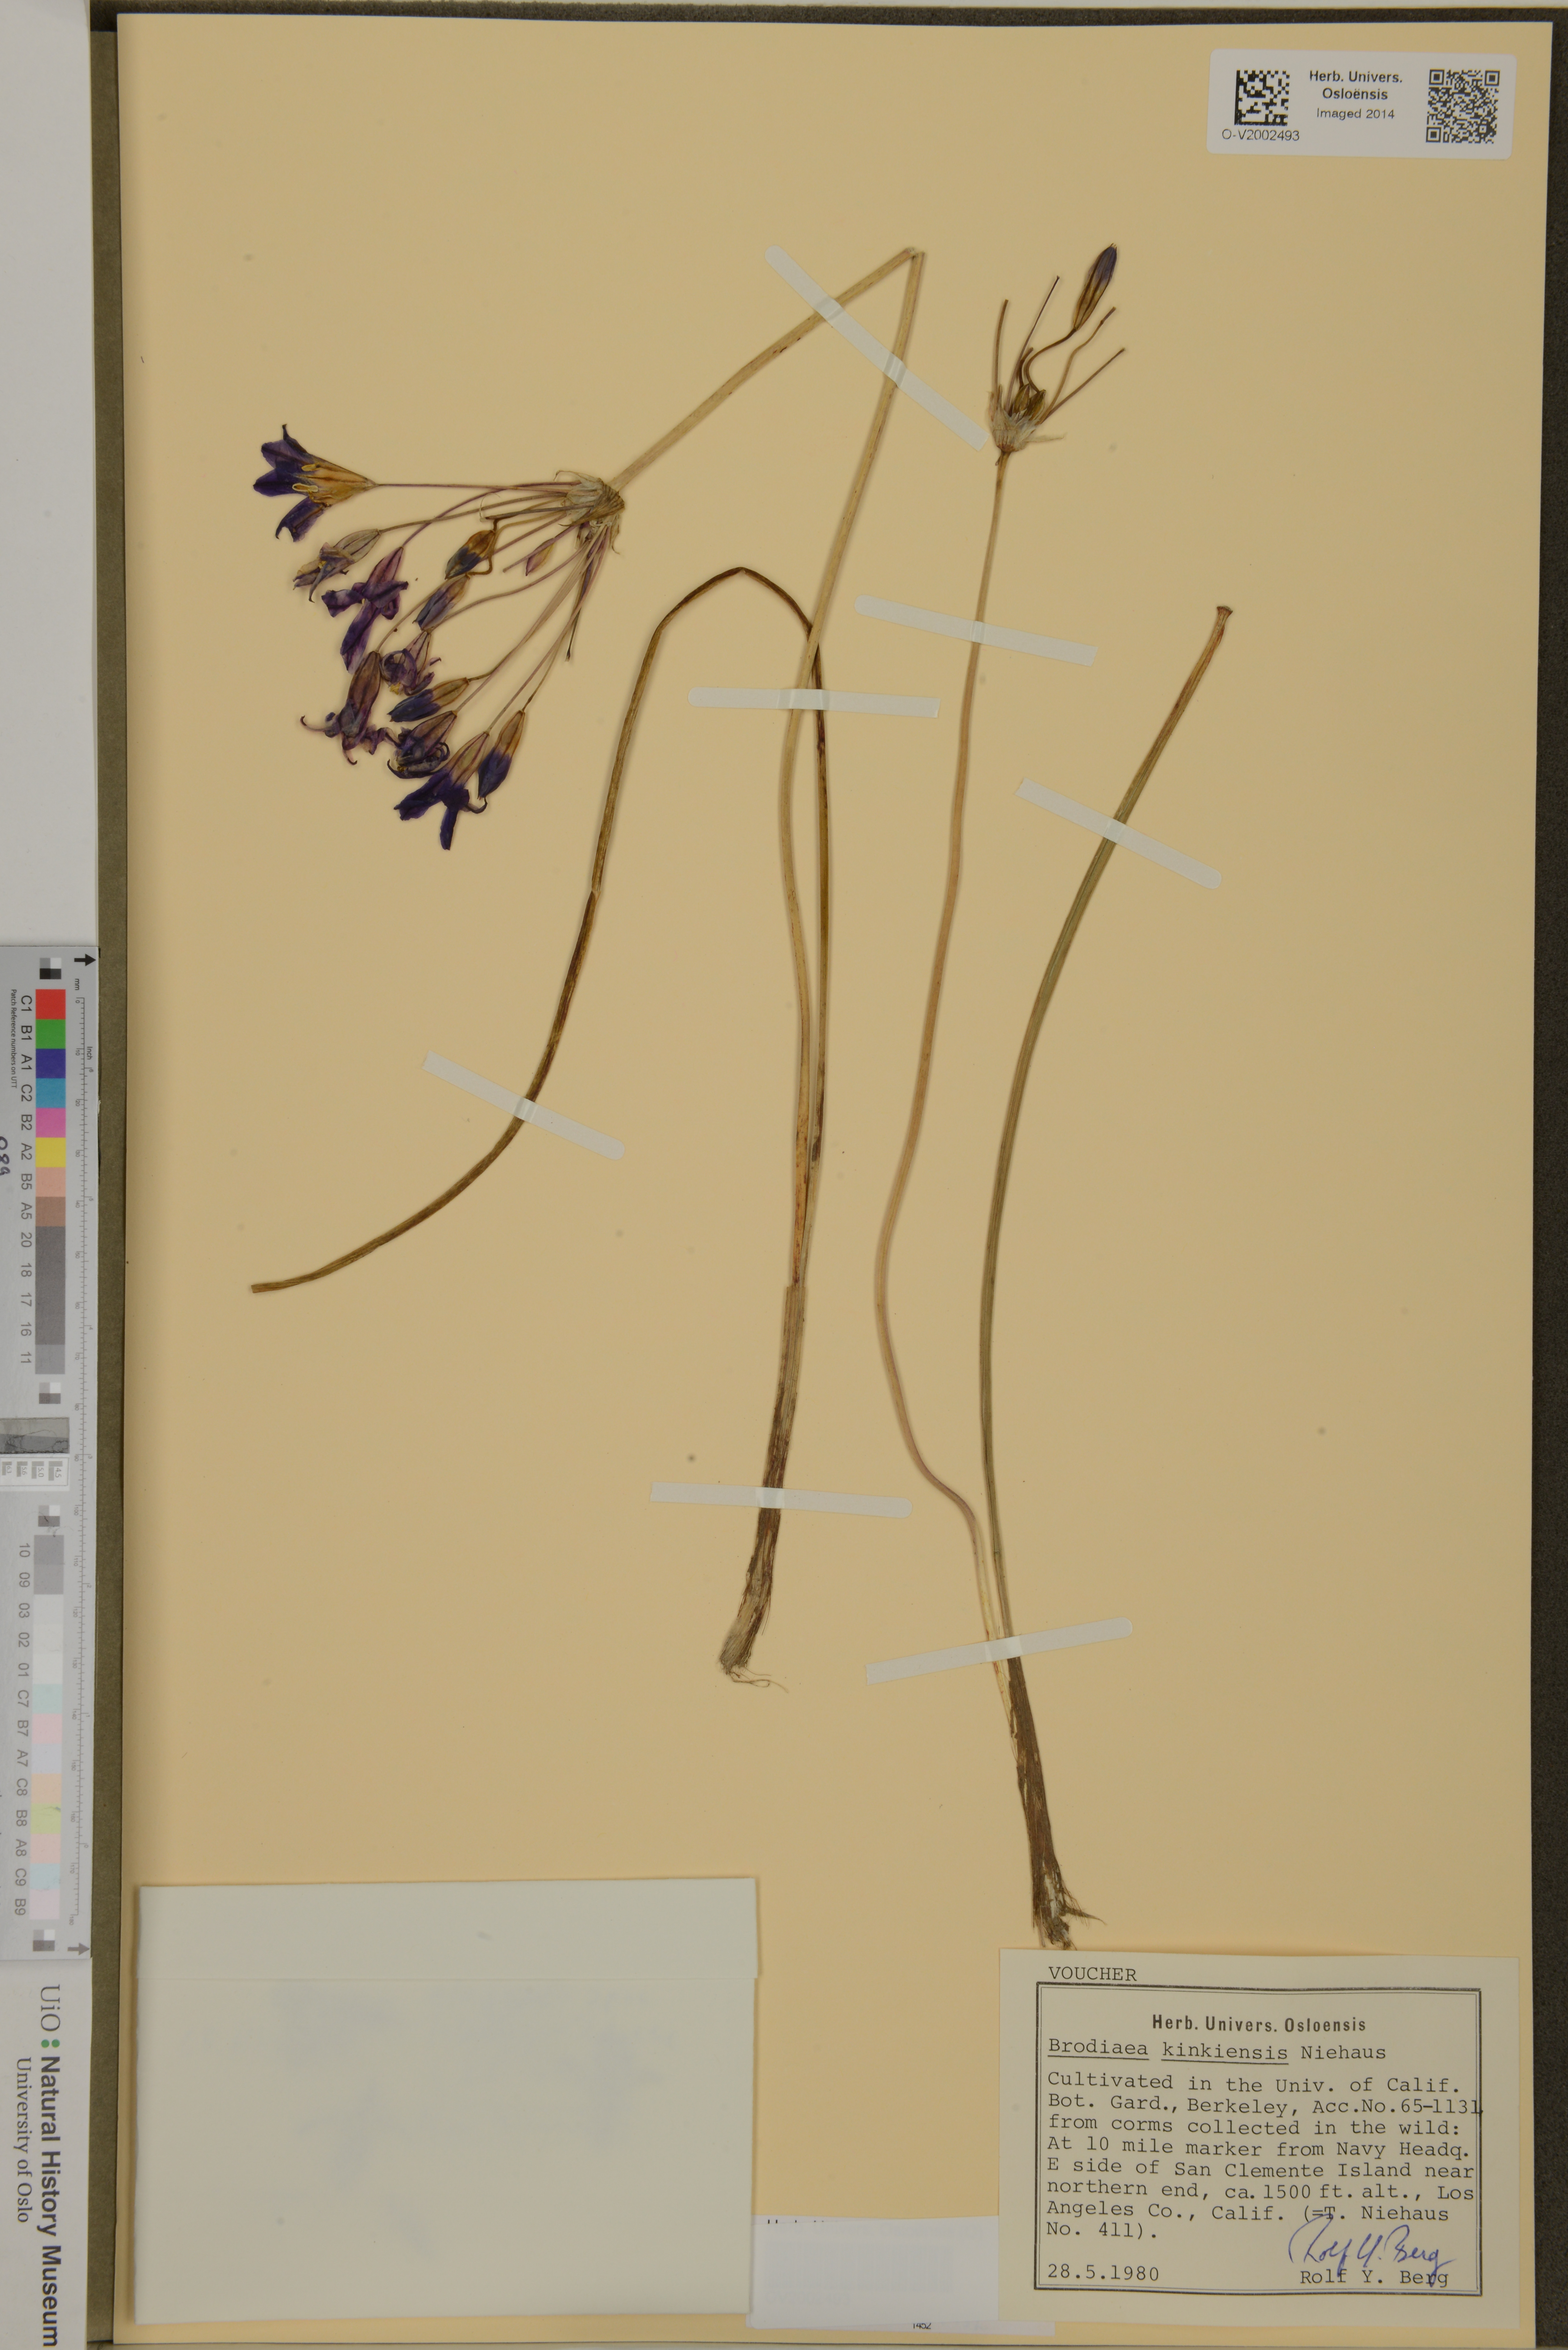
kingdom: Plantae
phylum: Tracheophyta
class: Liliopsida
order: Asparagales
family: Asparagaceae
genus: Brodiaea
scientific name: Brodiaea kinkiensis
